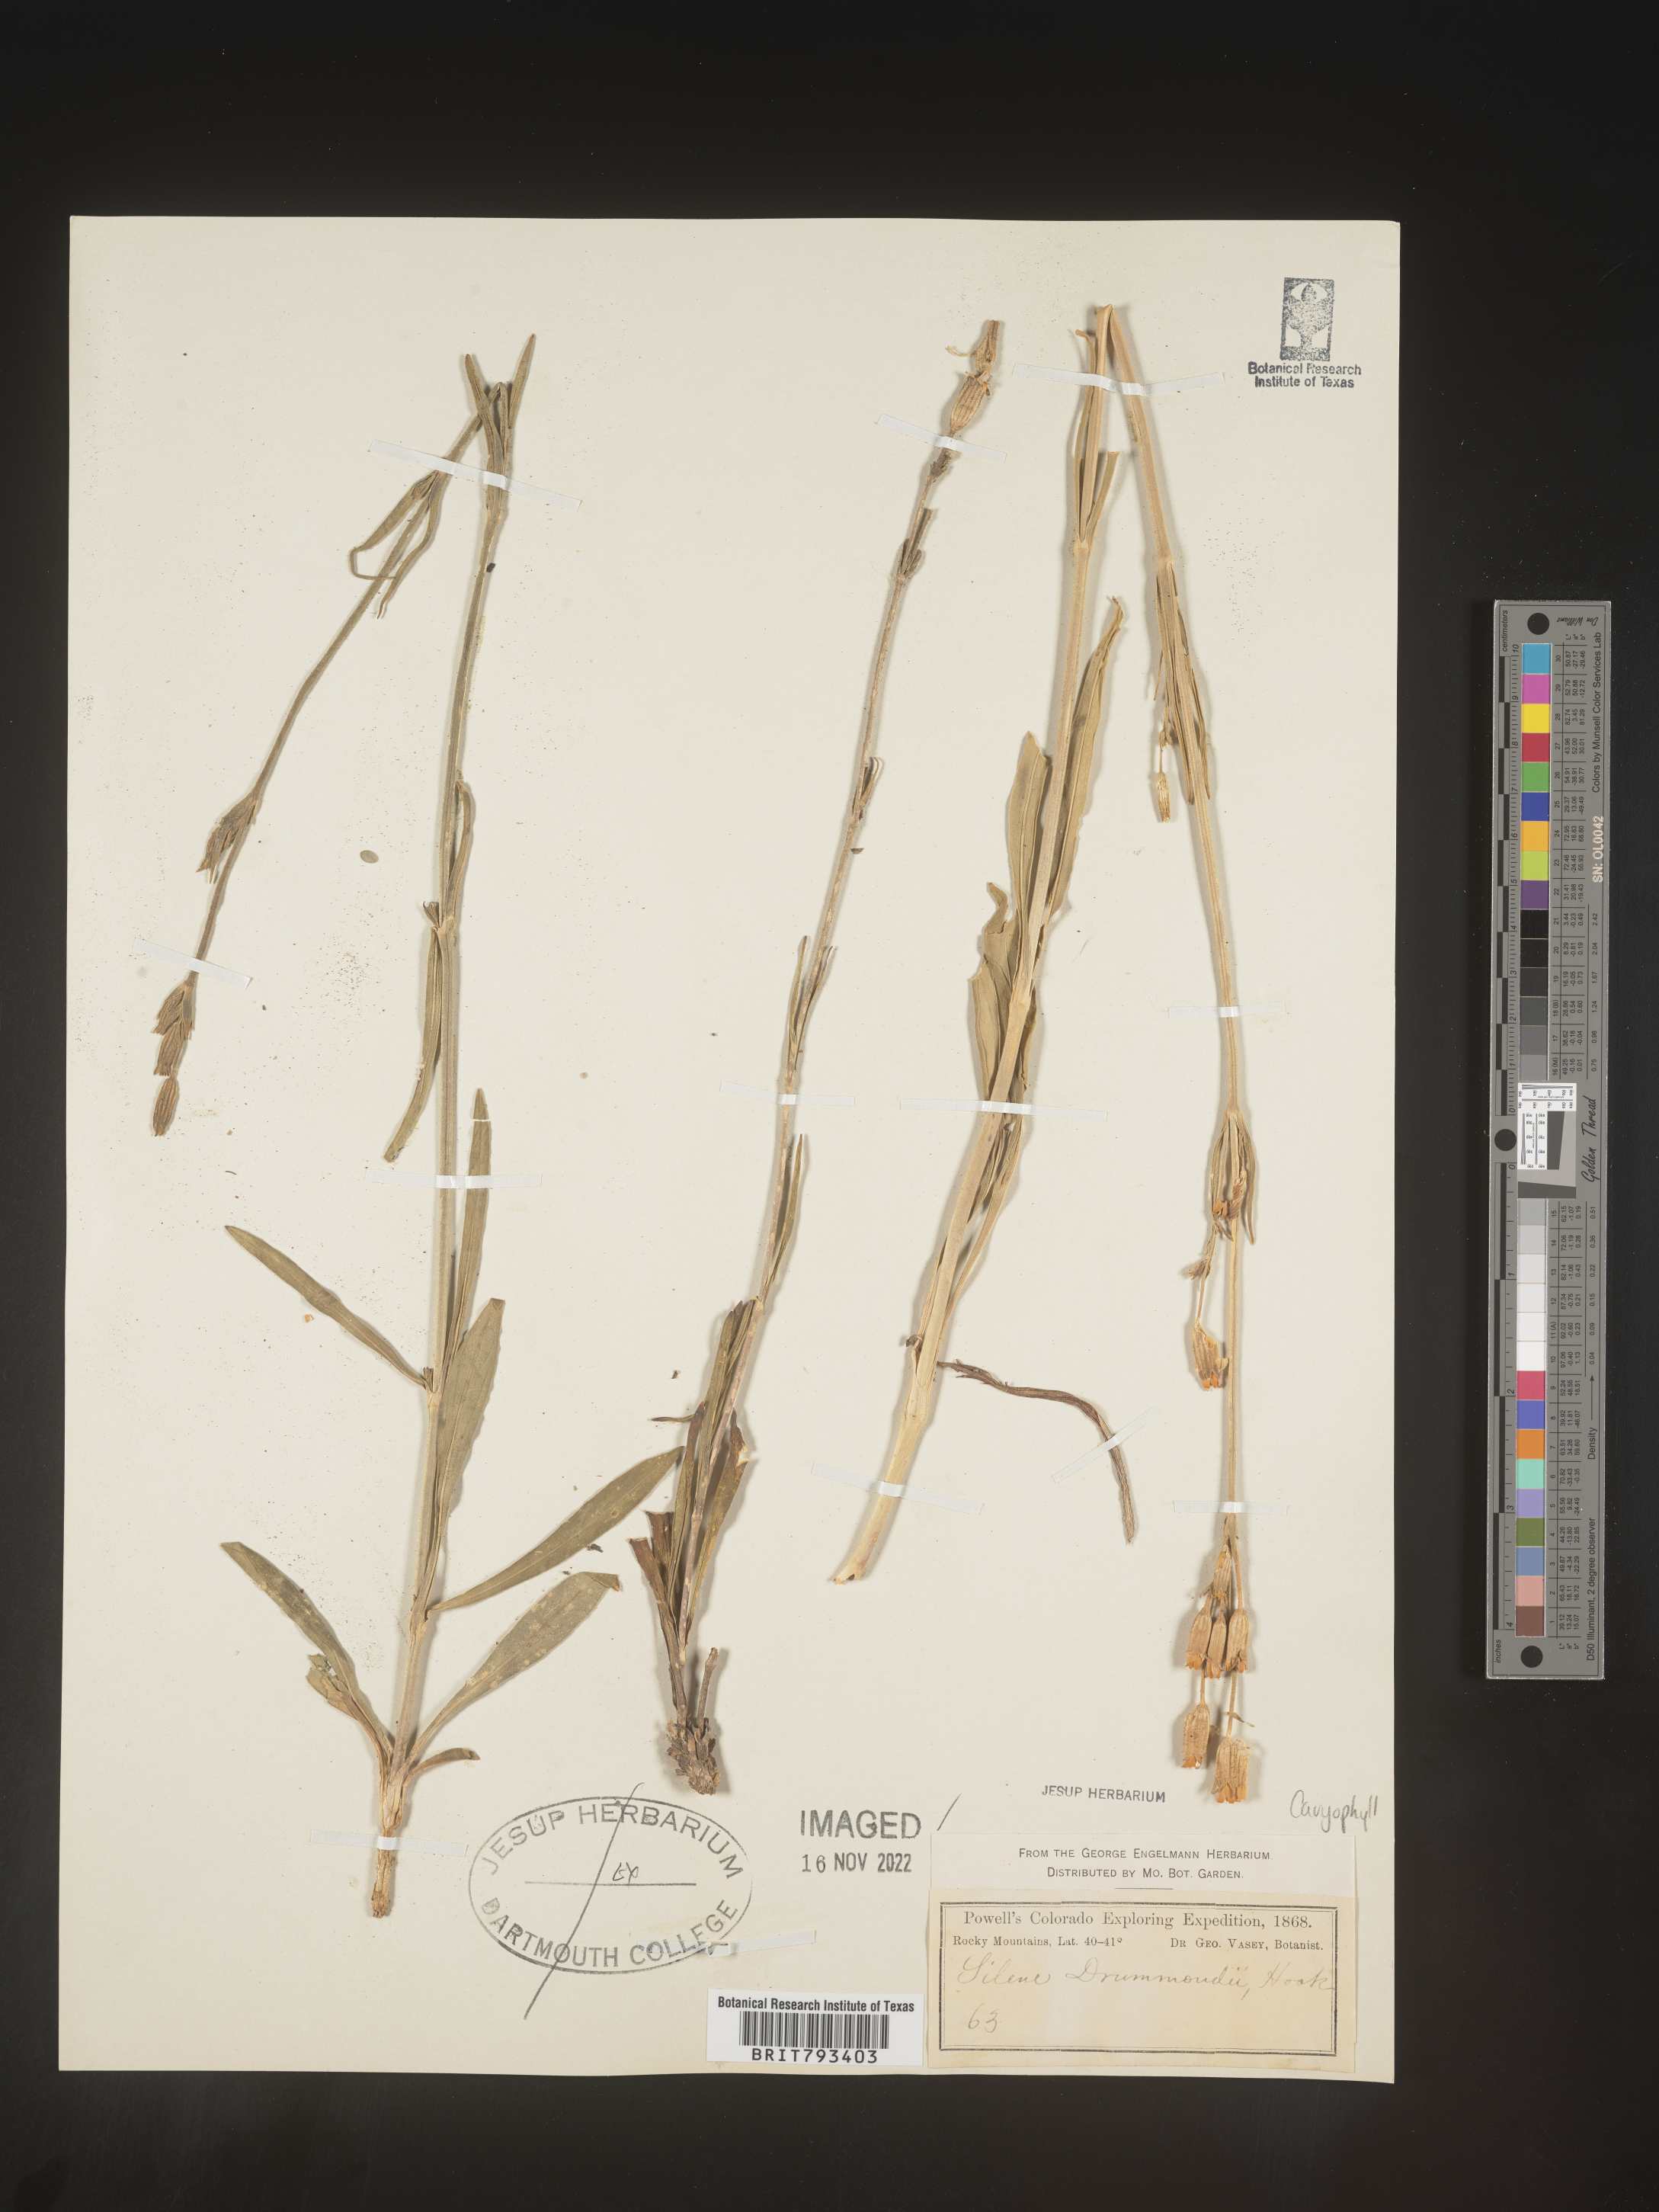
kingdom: Plantae
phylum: Tracheophyta
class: Magnoliopsida
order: Caryophyllales
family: Caryophyllaceae
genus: Silene
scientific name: Silene drummondii
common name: Drummond's catchfly
